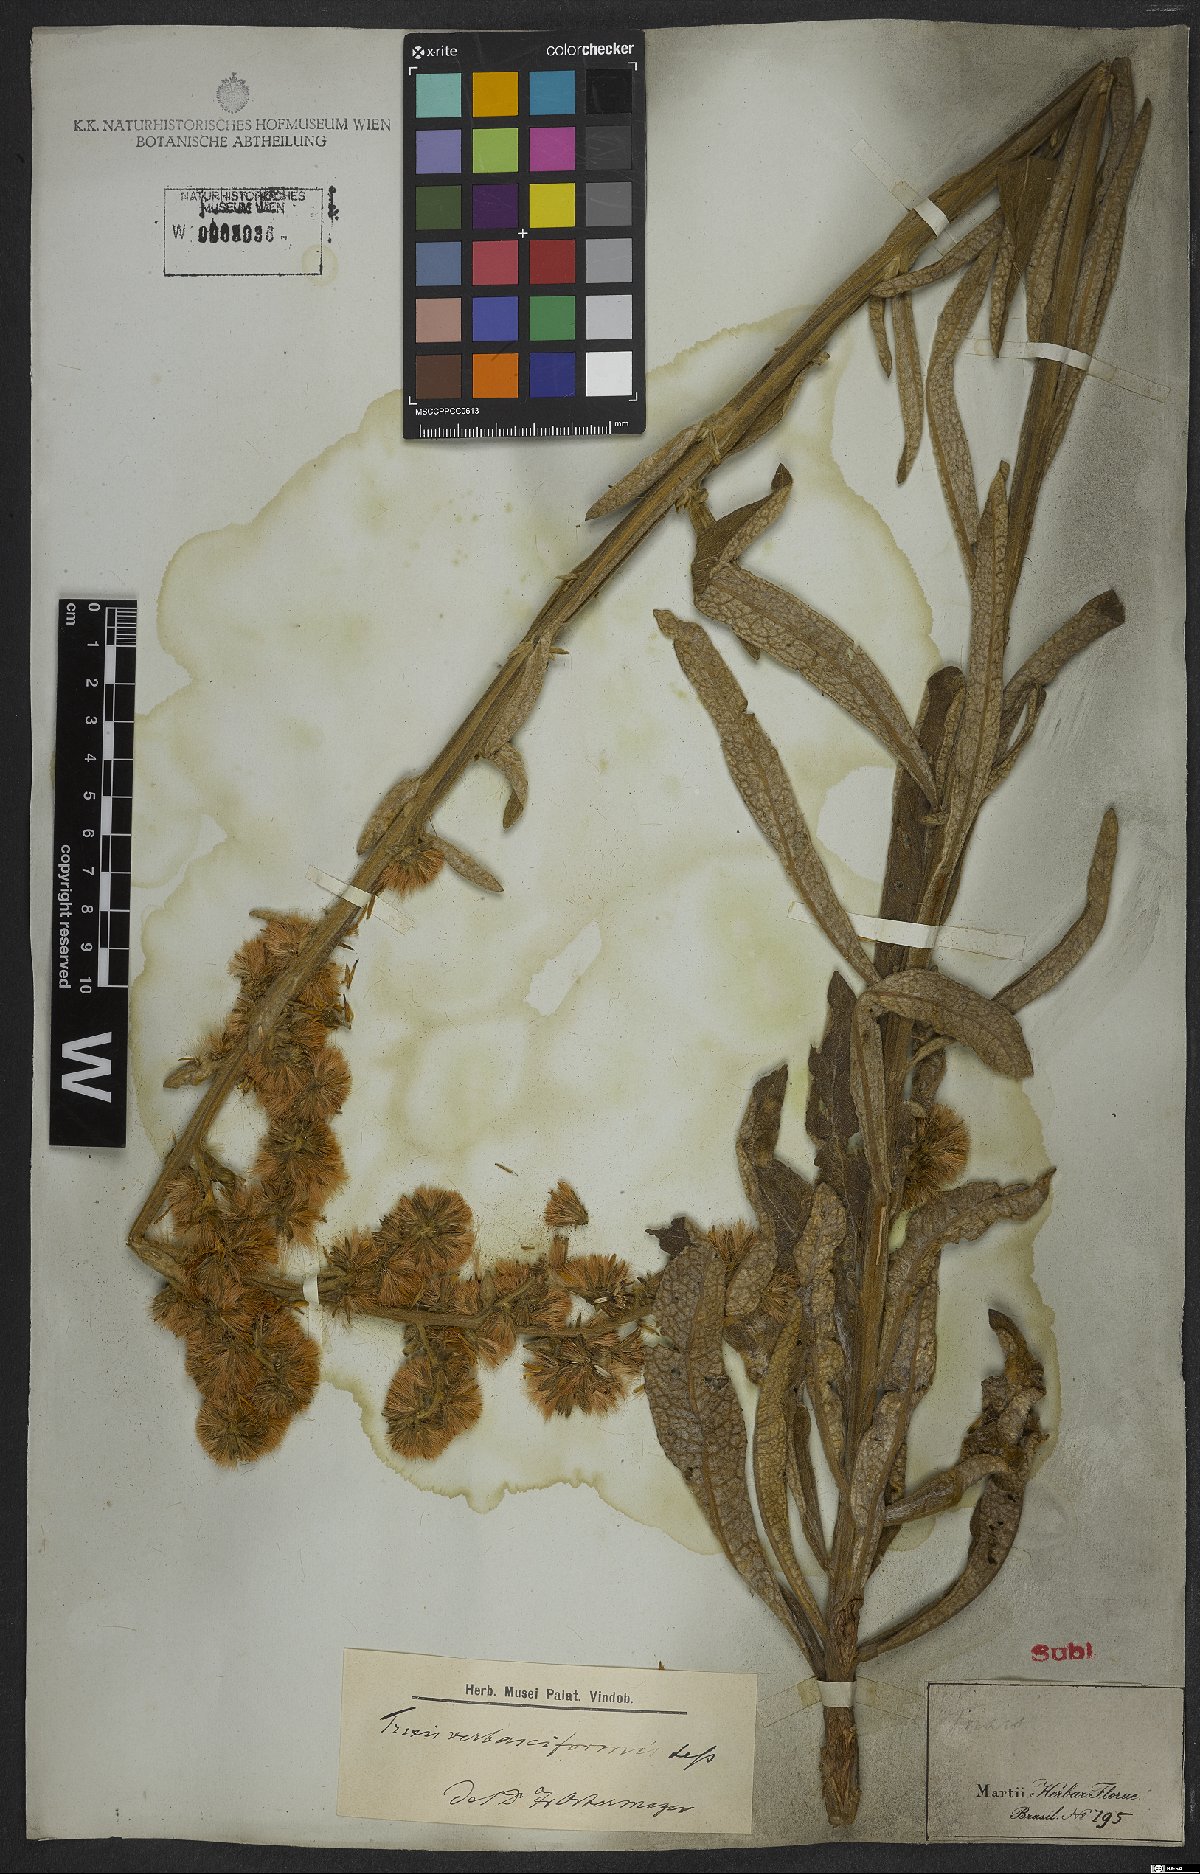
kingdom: Plantae
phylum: Tracheophyta
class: Magnoliopsida
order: Asterales
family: Asteraceae
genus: Trixis
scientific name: Trixis nobilis
